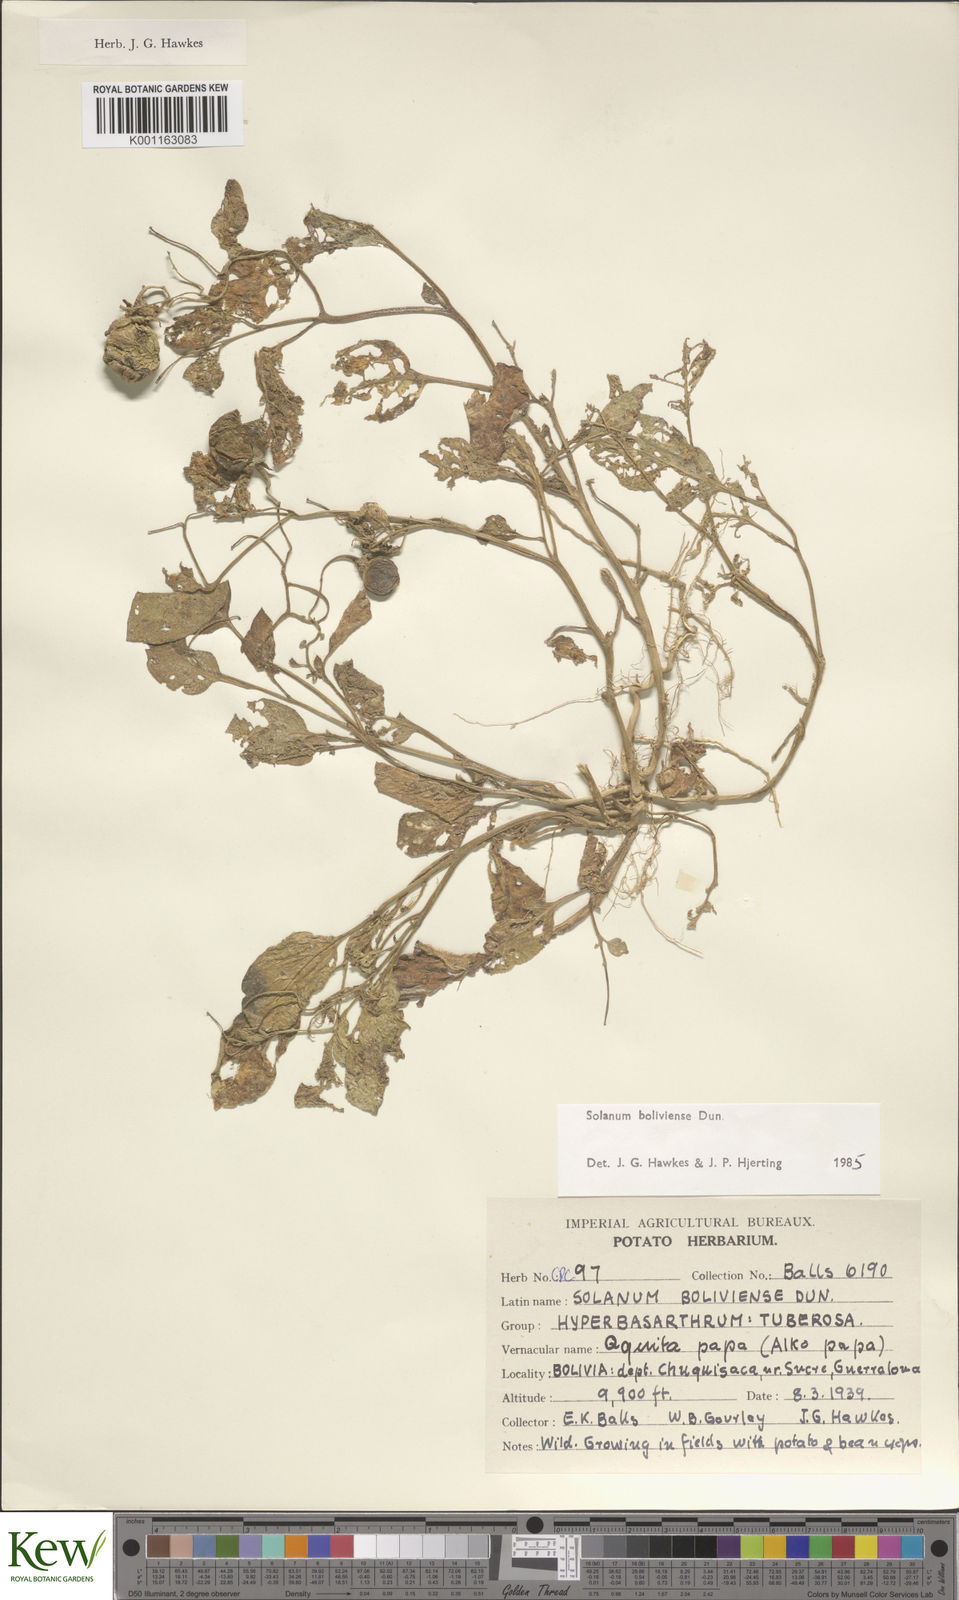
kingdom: Plantae
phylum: Tracheophyta
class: Magnoliopsida
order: Solanales
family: Solanaceae
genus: Solanum
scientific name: Solanum boliviense
